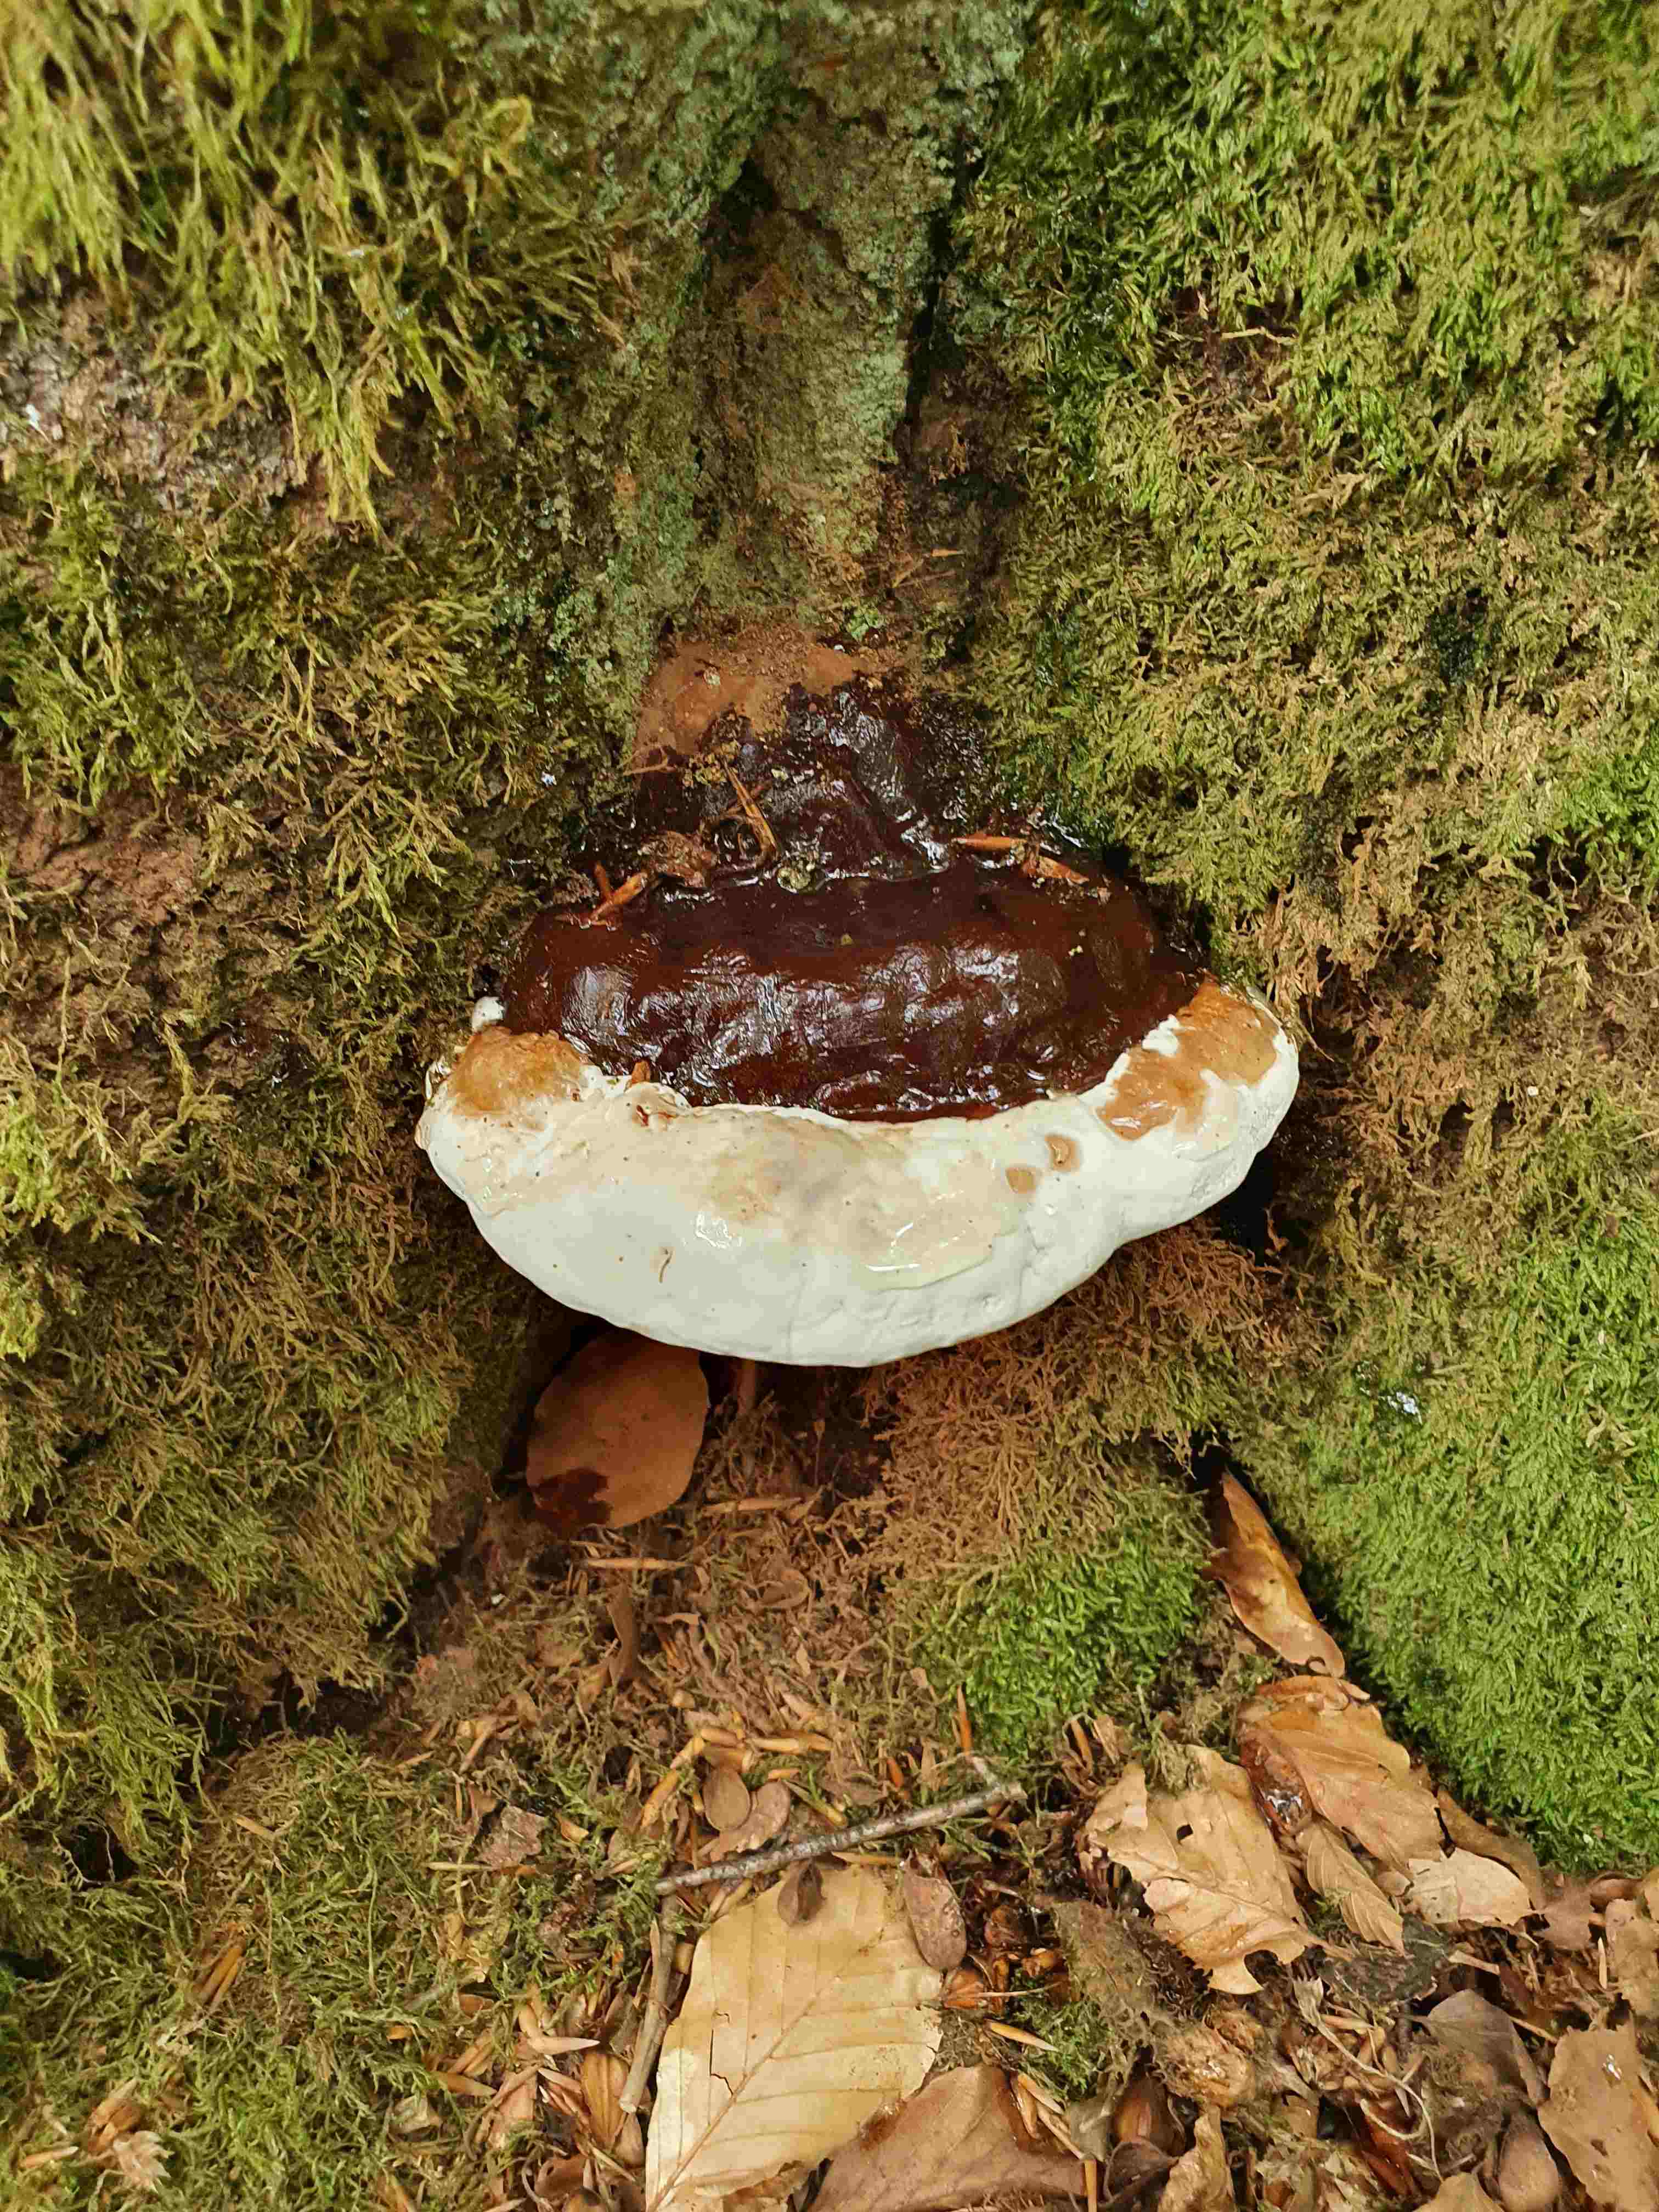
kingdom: Fungi
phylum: Basidiomycota
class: Agaricomycetes
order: Polyporales
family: Polyporaceae
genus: Ganoderma
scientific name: Ganoderma pfeifferi
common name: kobberrød lakporesvamp
